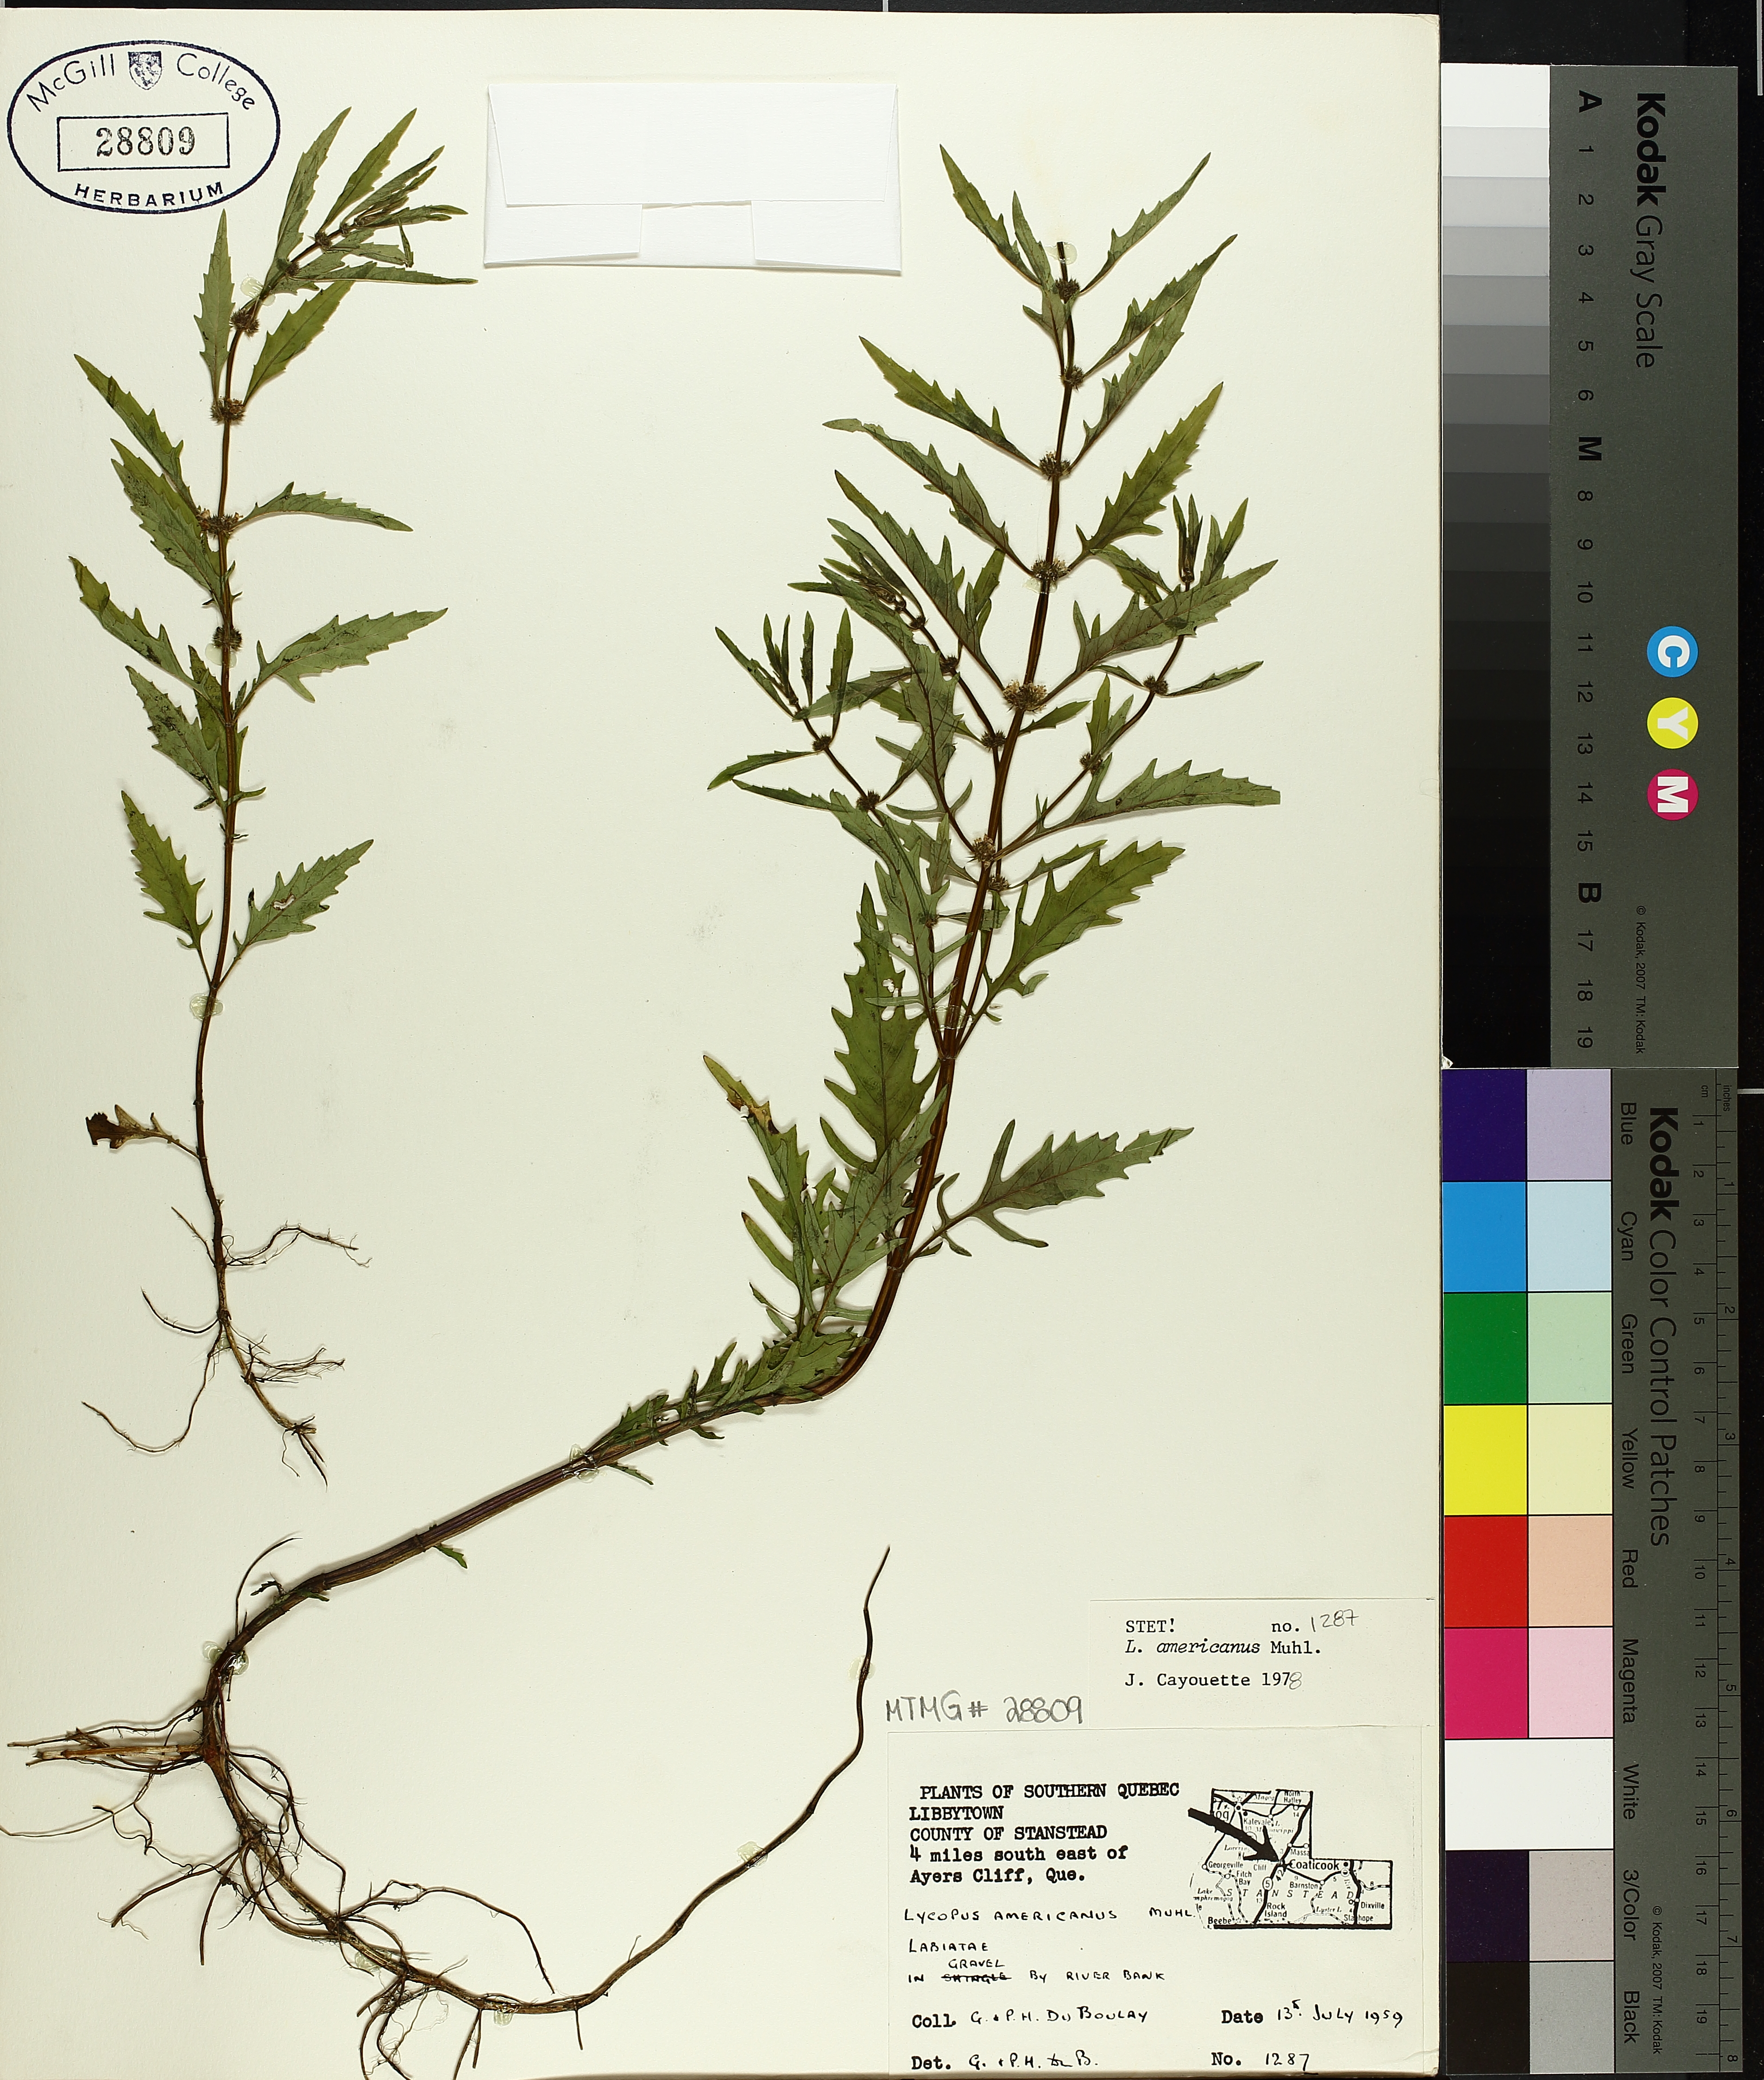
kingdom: Plantae
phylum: Tracheophyta
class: Magnoliopsida
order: Lamiales
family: Lamiaceae
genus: Lycopus
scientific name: Lycopus americanus
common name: American bugleweed
